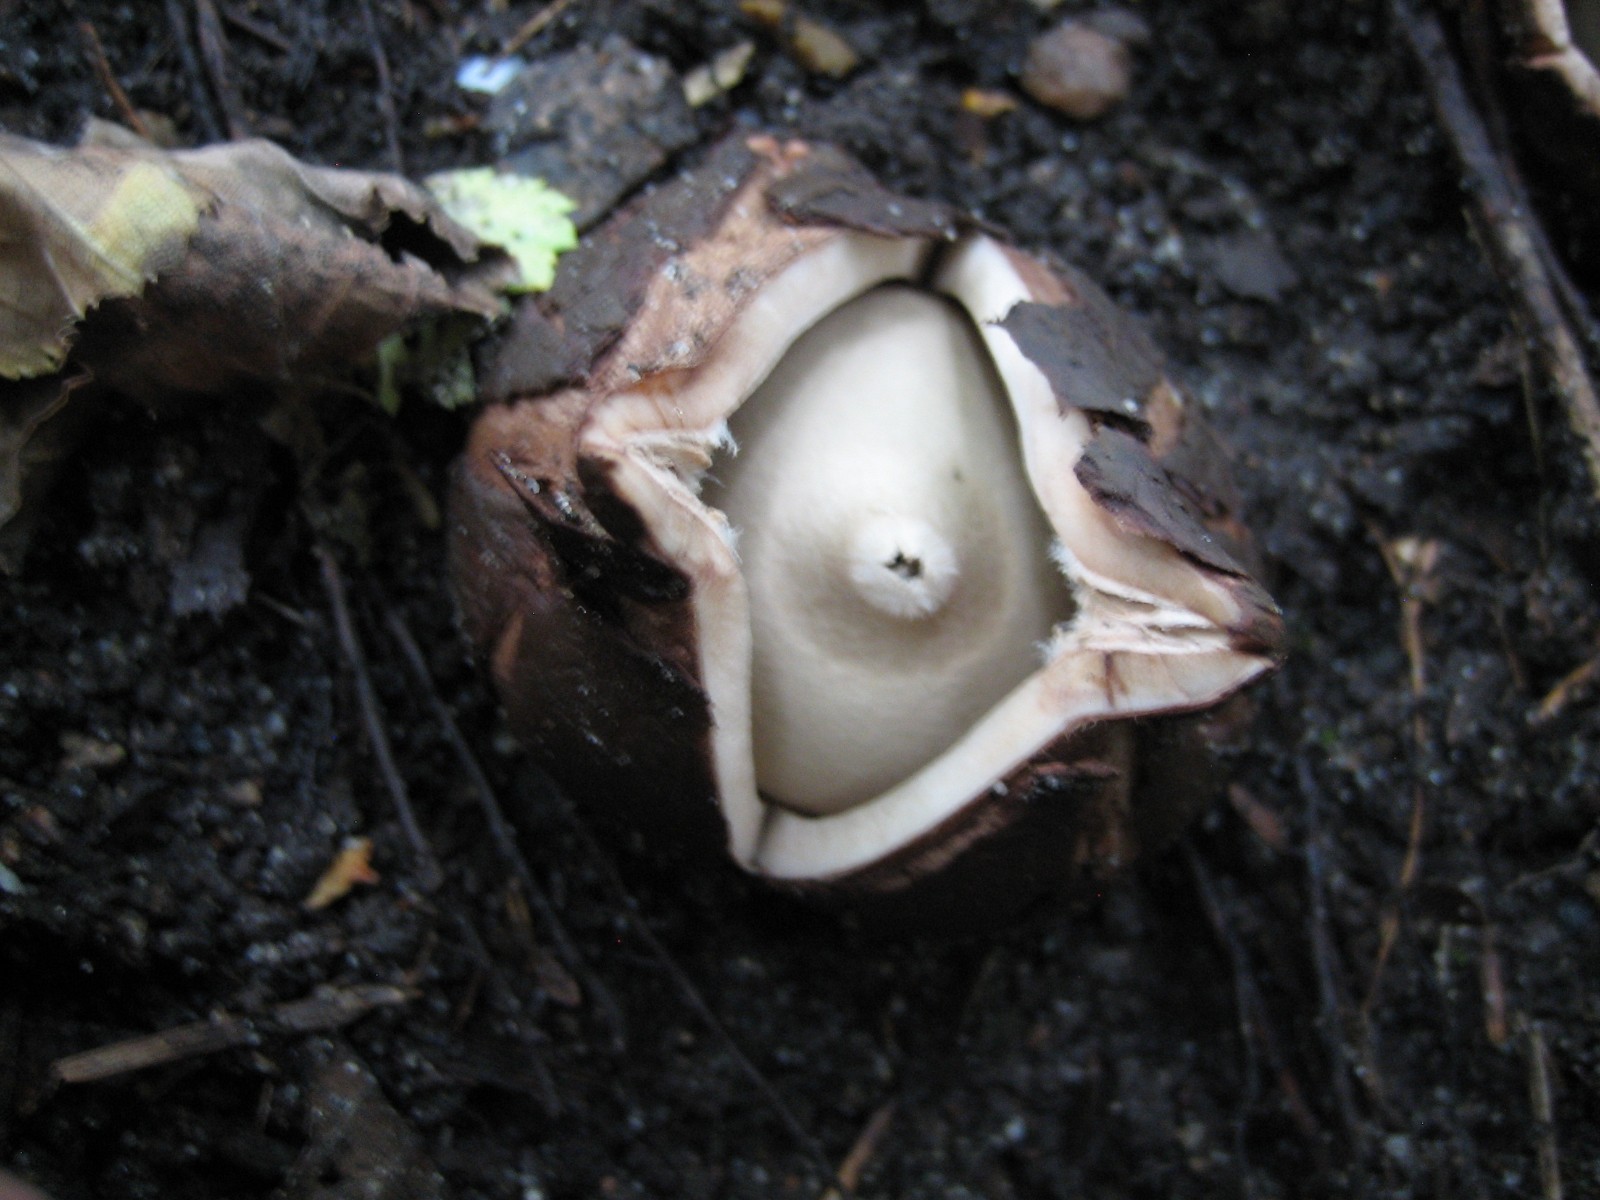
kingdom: Fungi
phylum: Basidiomycota
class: Agaricomycetes
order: Geastrales
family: Geastraceae
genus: Geastrum
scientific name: Geastrum michelianum
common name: kødet stjernebold
